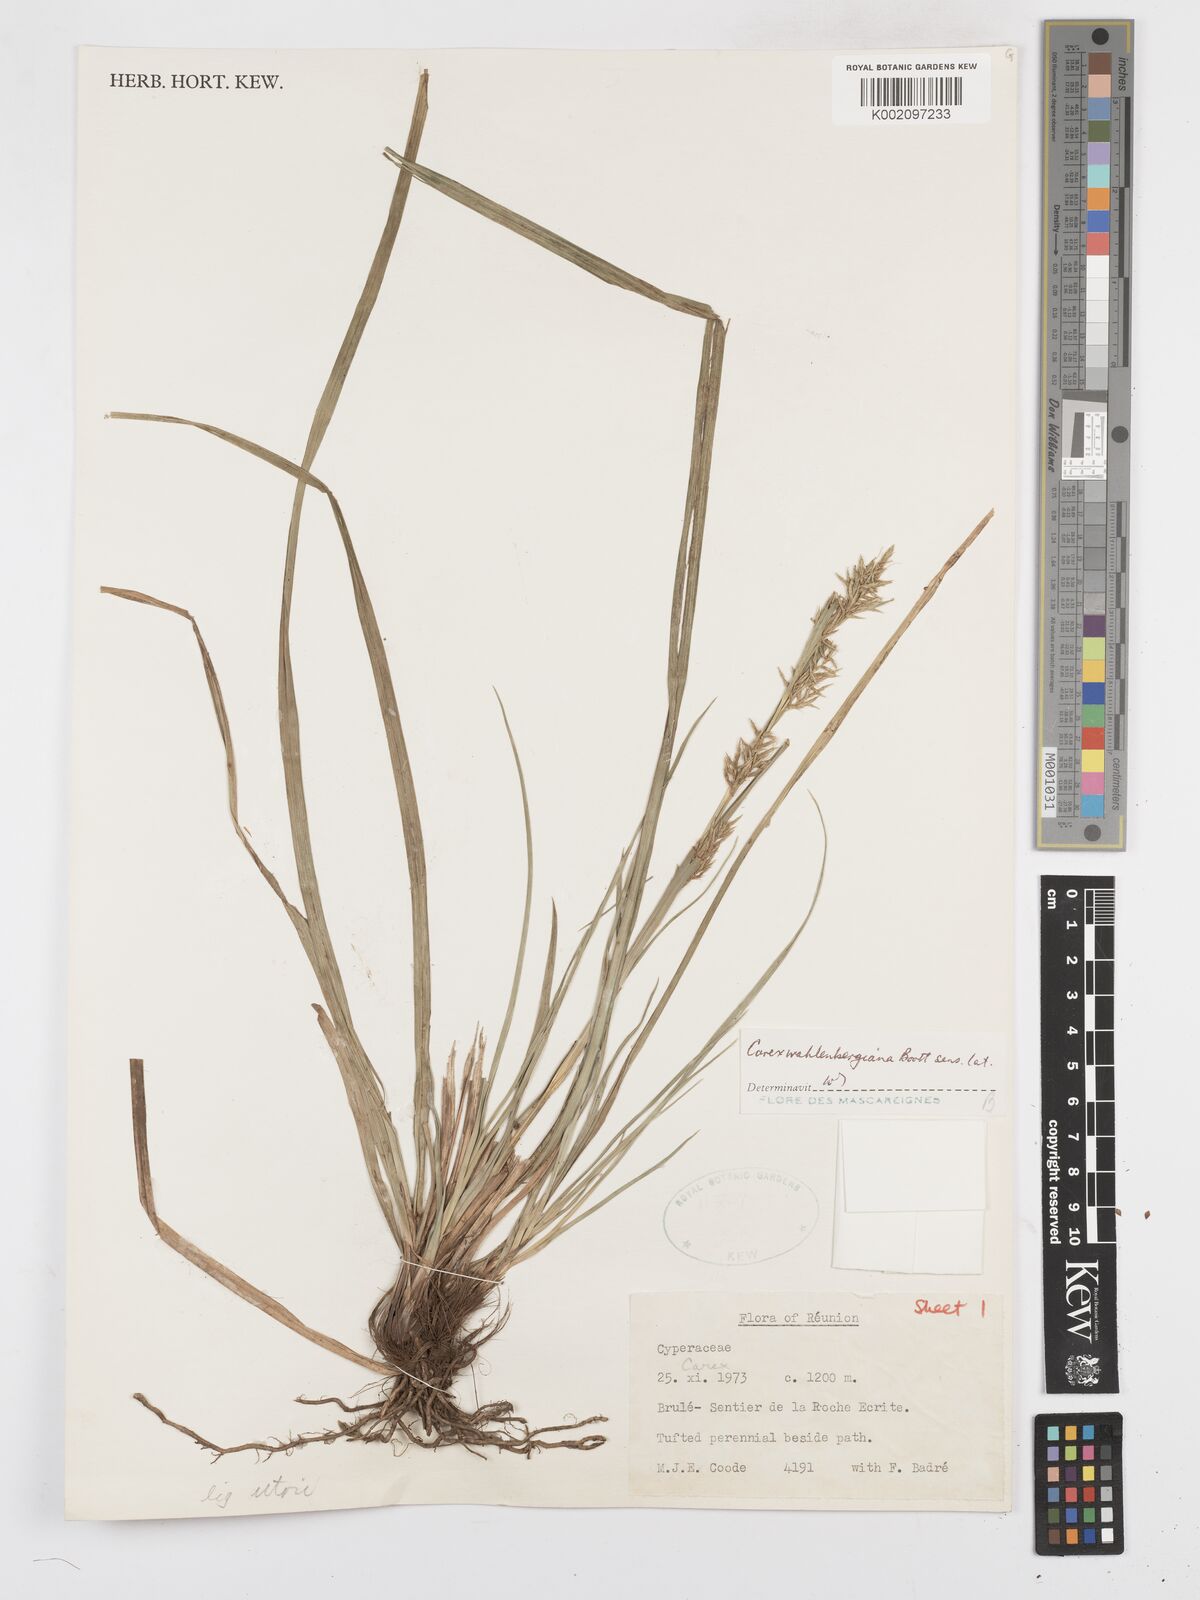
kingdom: Plantae
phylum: Tracheophyta
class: Liliopsida
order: Poales
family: Cyperaceae
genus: Carex
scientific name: Carex wahlenbergiana
